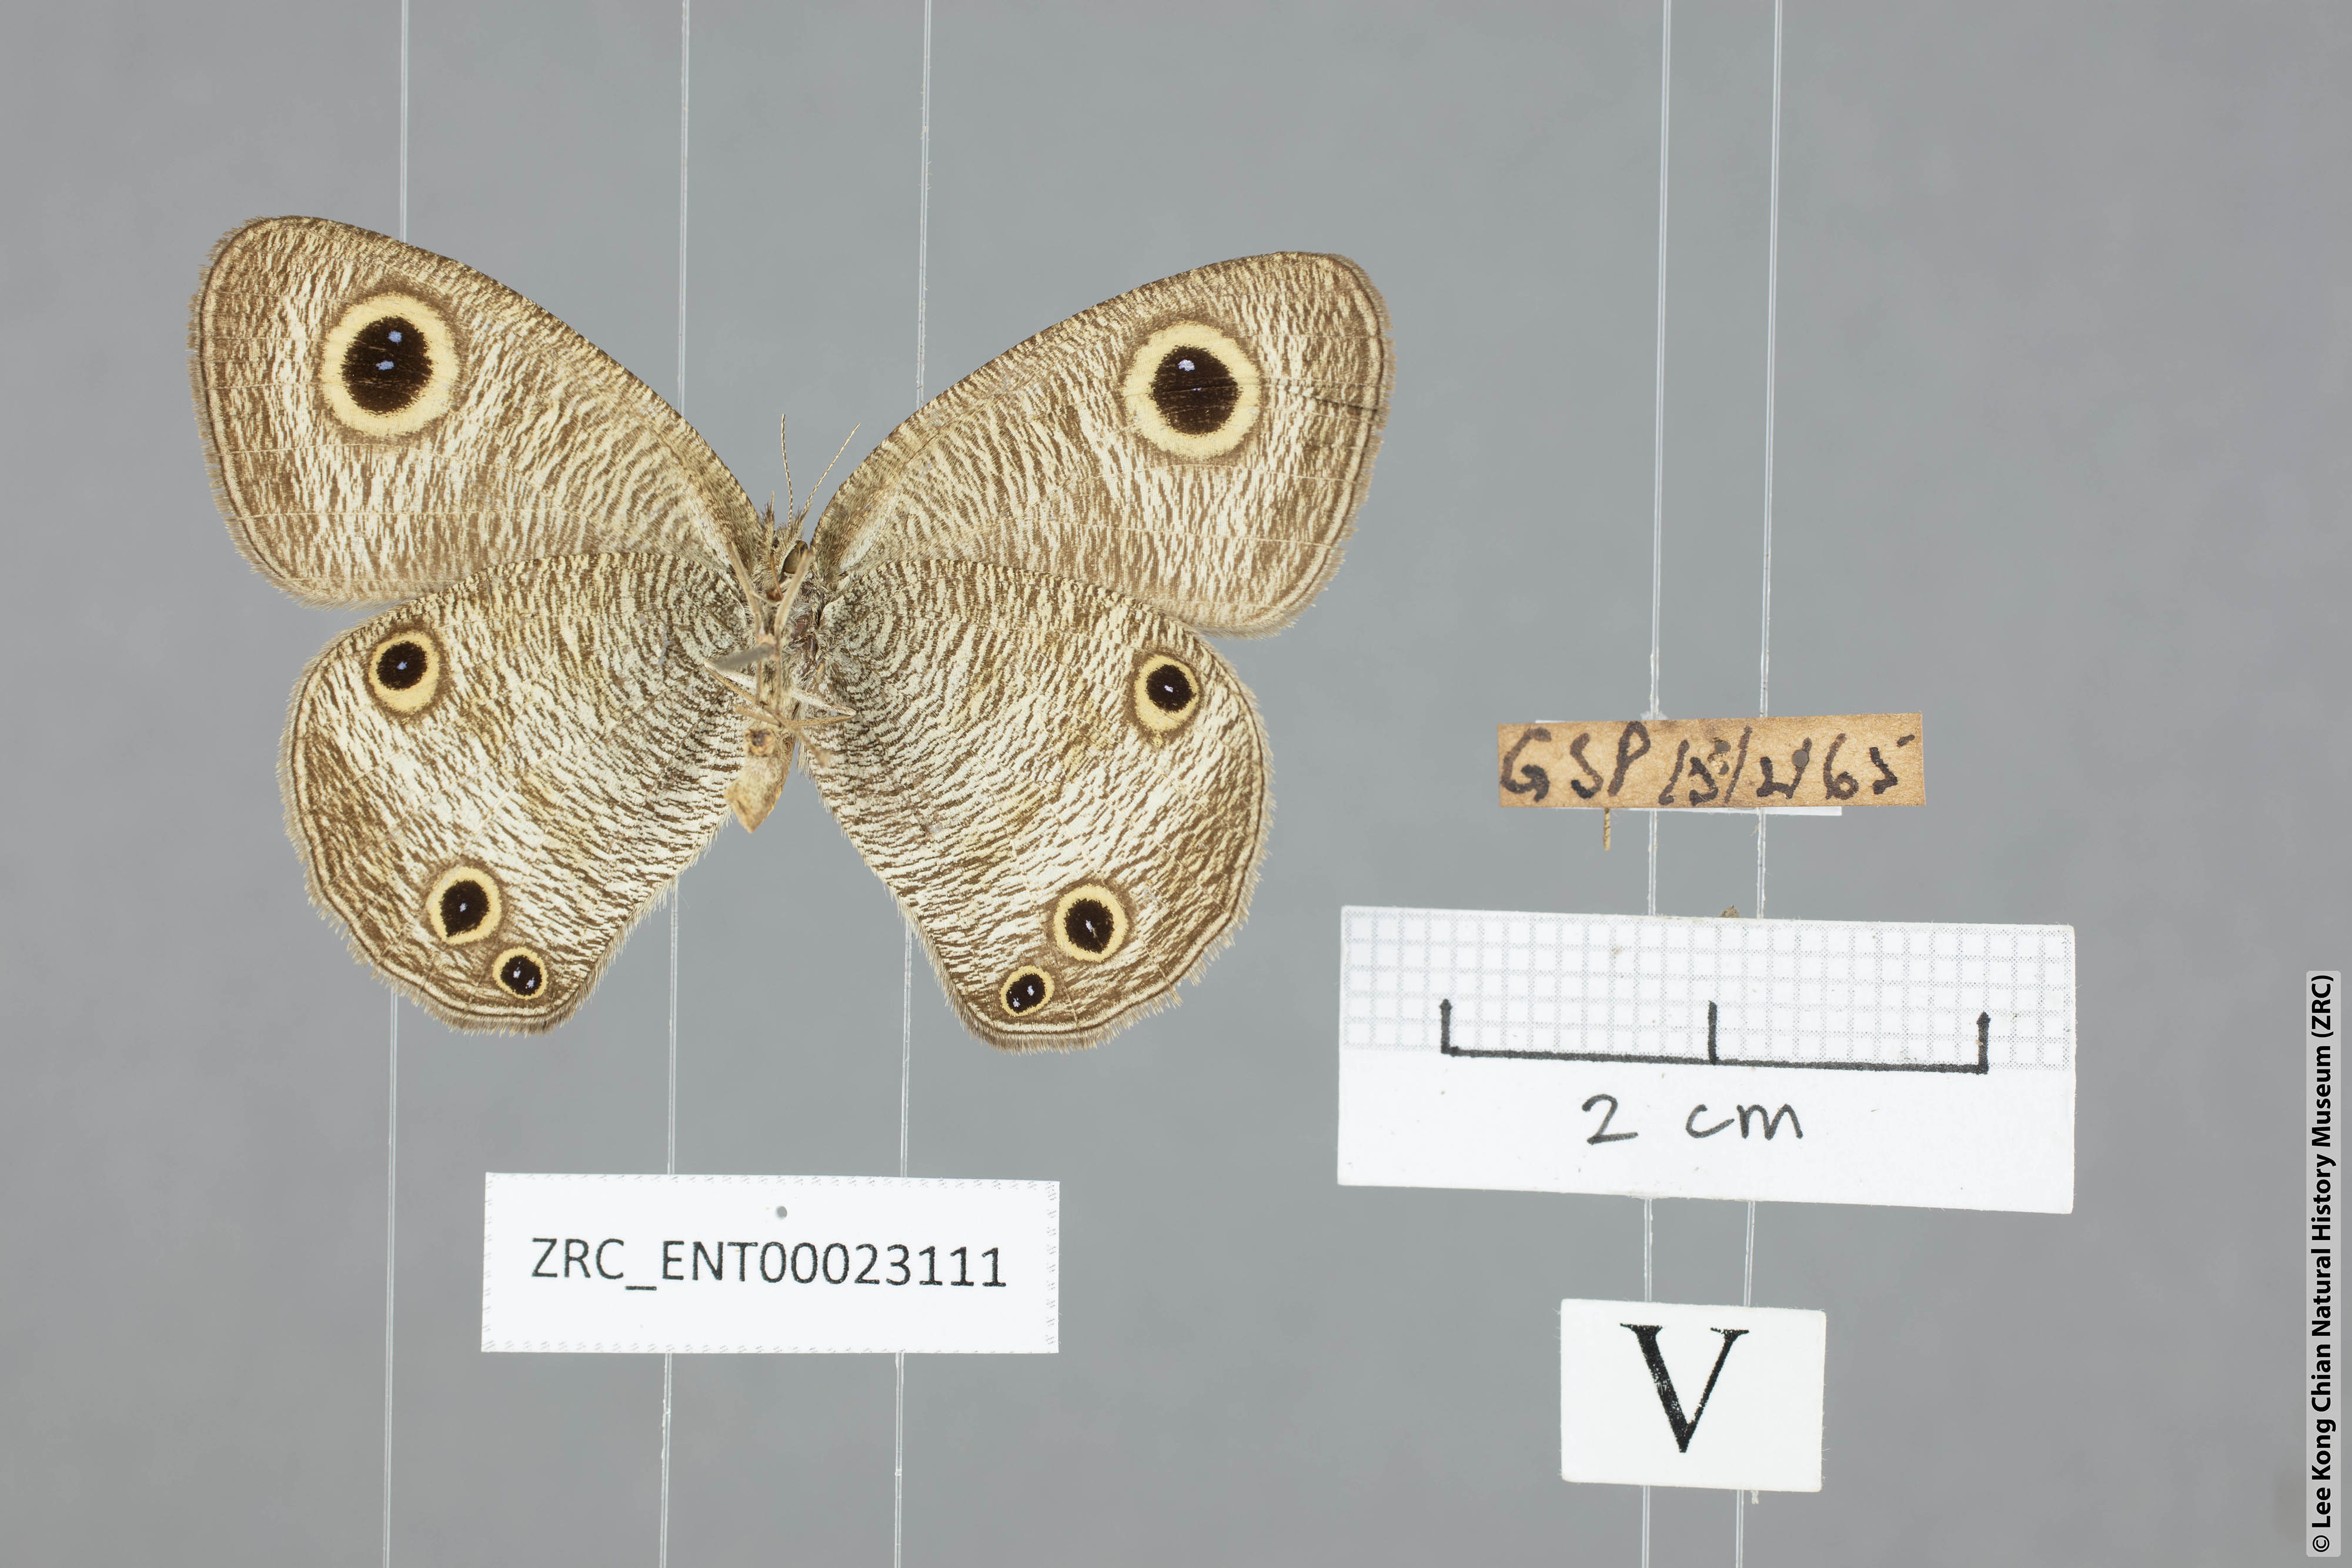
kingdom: Animalia
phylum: Arthropoda
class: Insecta
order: Lepidoptera
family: Nymphalidae
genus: Ypthima
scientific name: Ypthima pandocus
